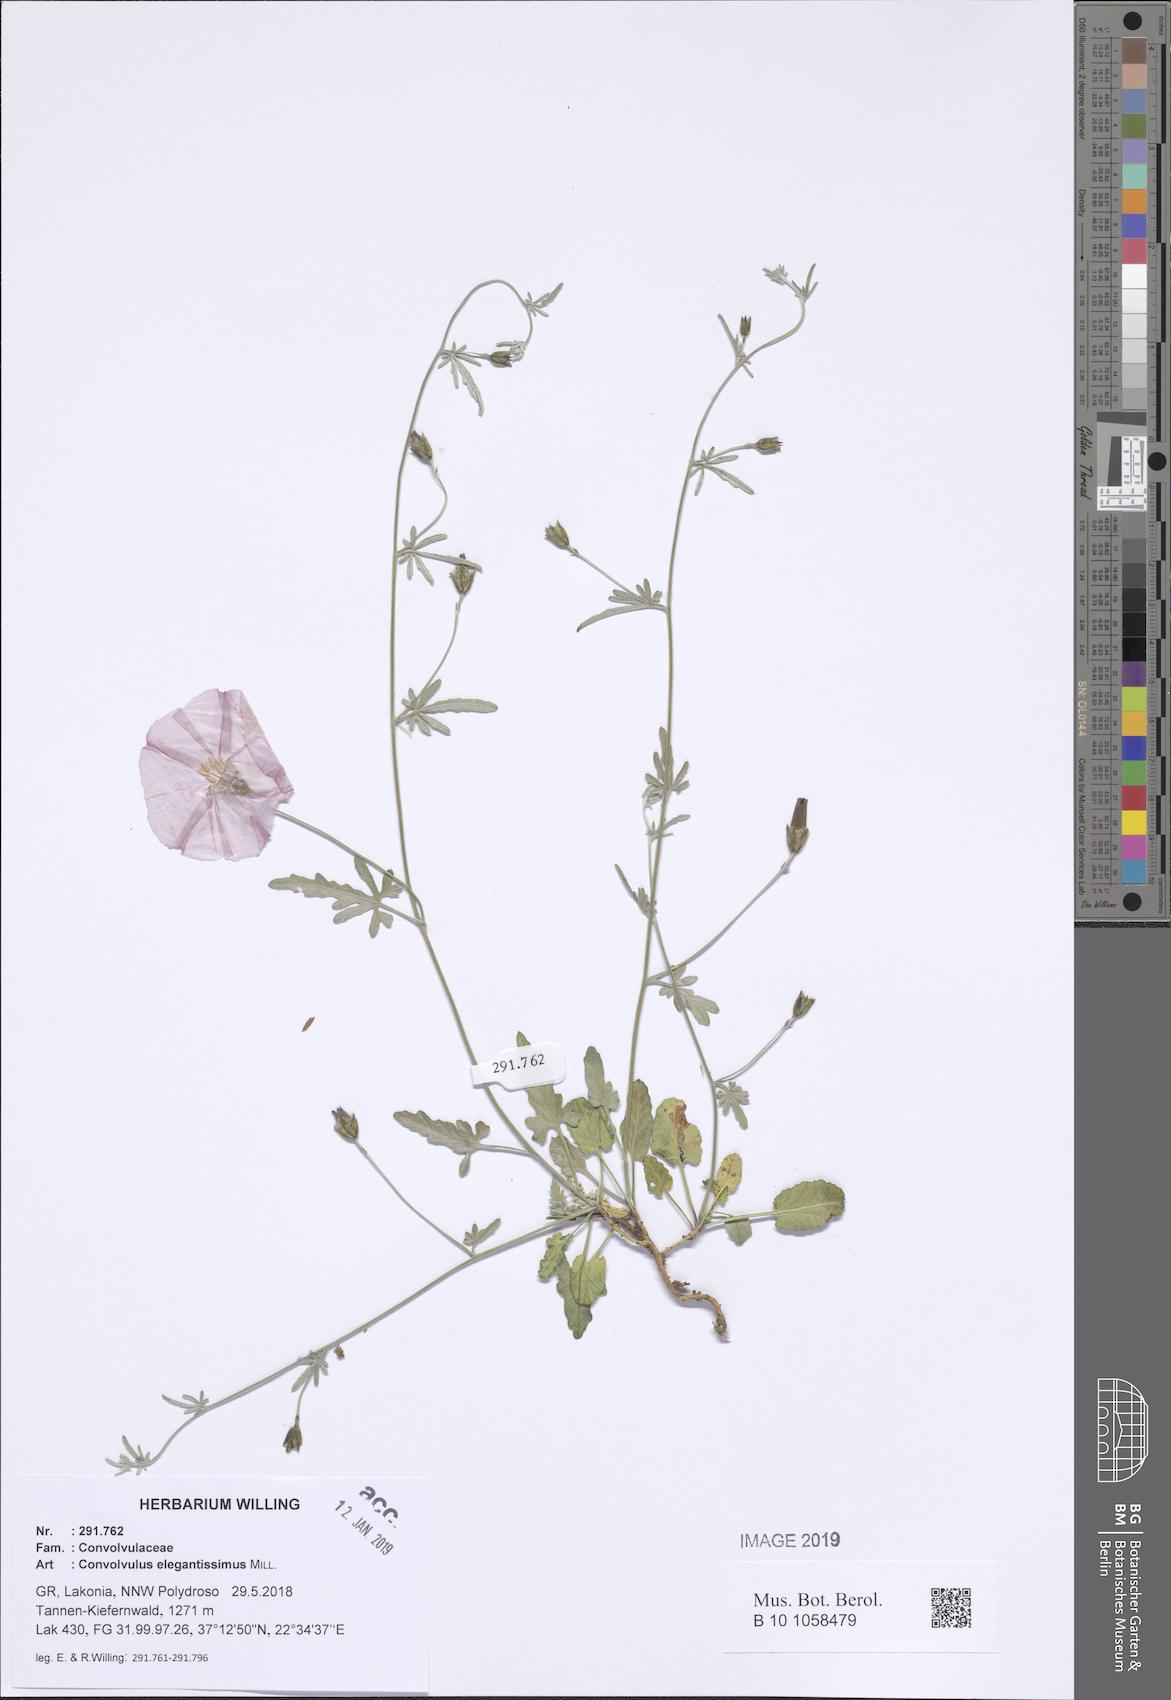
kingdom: Plantae
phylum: Tracheophyta
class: Magnoliopsida
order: Solanales
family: Convolvulaceae
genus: Convolvulus
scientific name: Convolvulus elegantissimus
